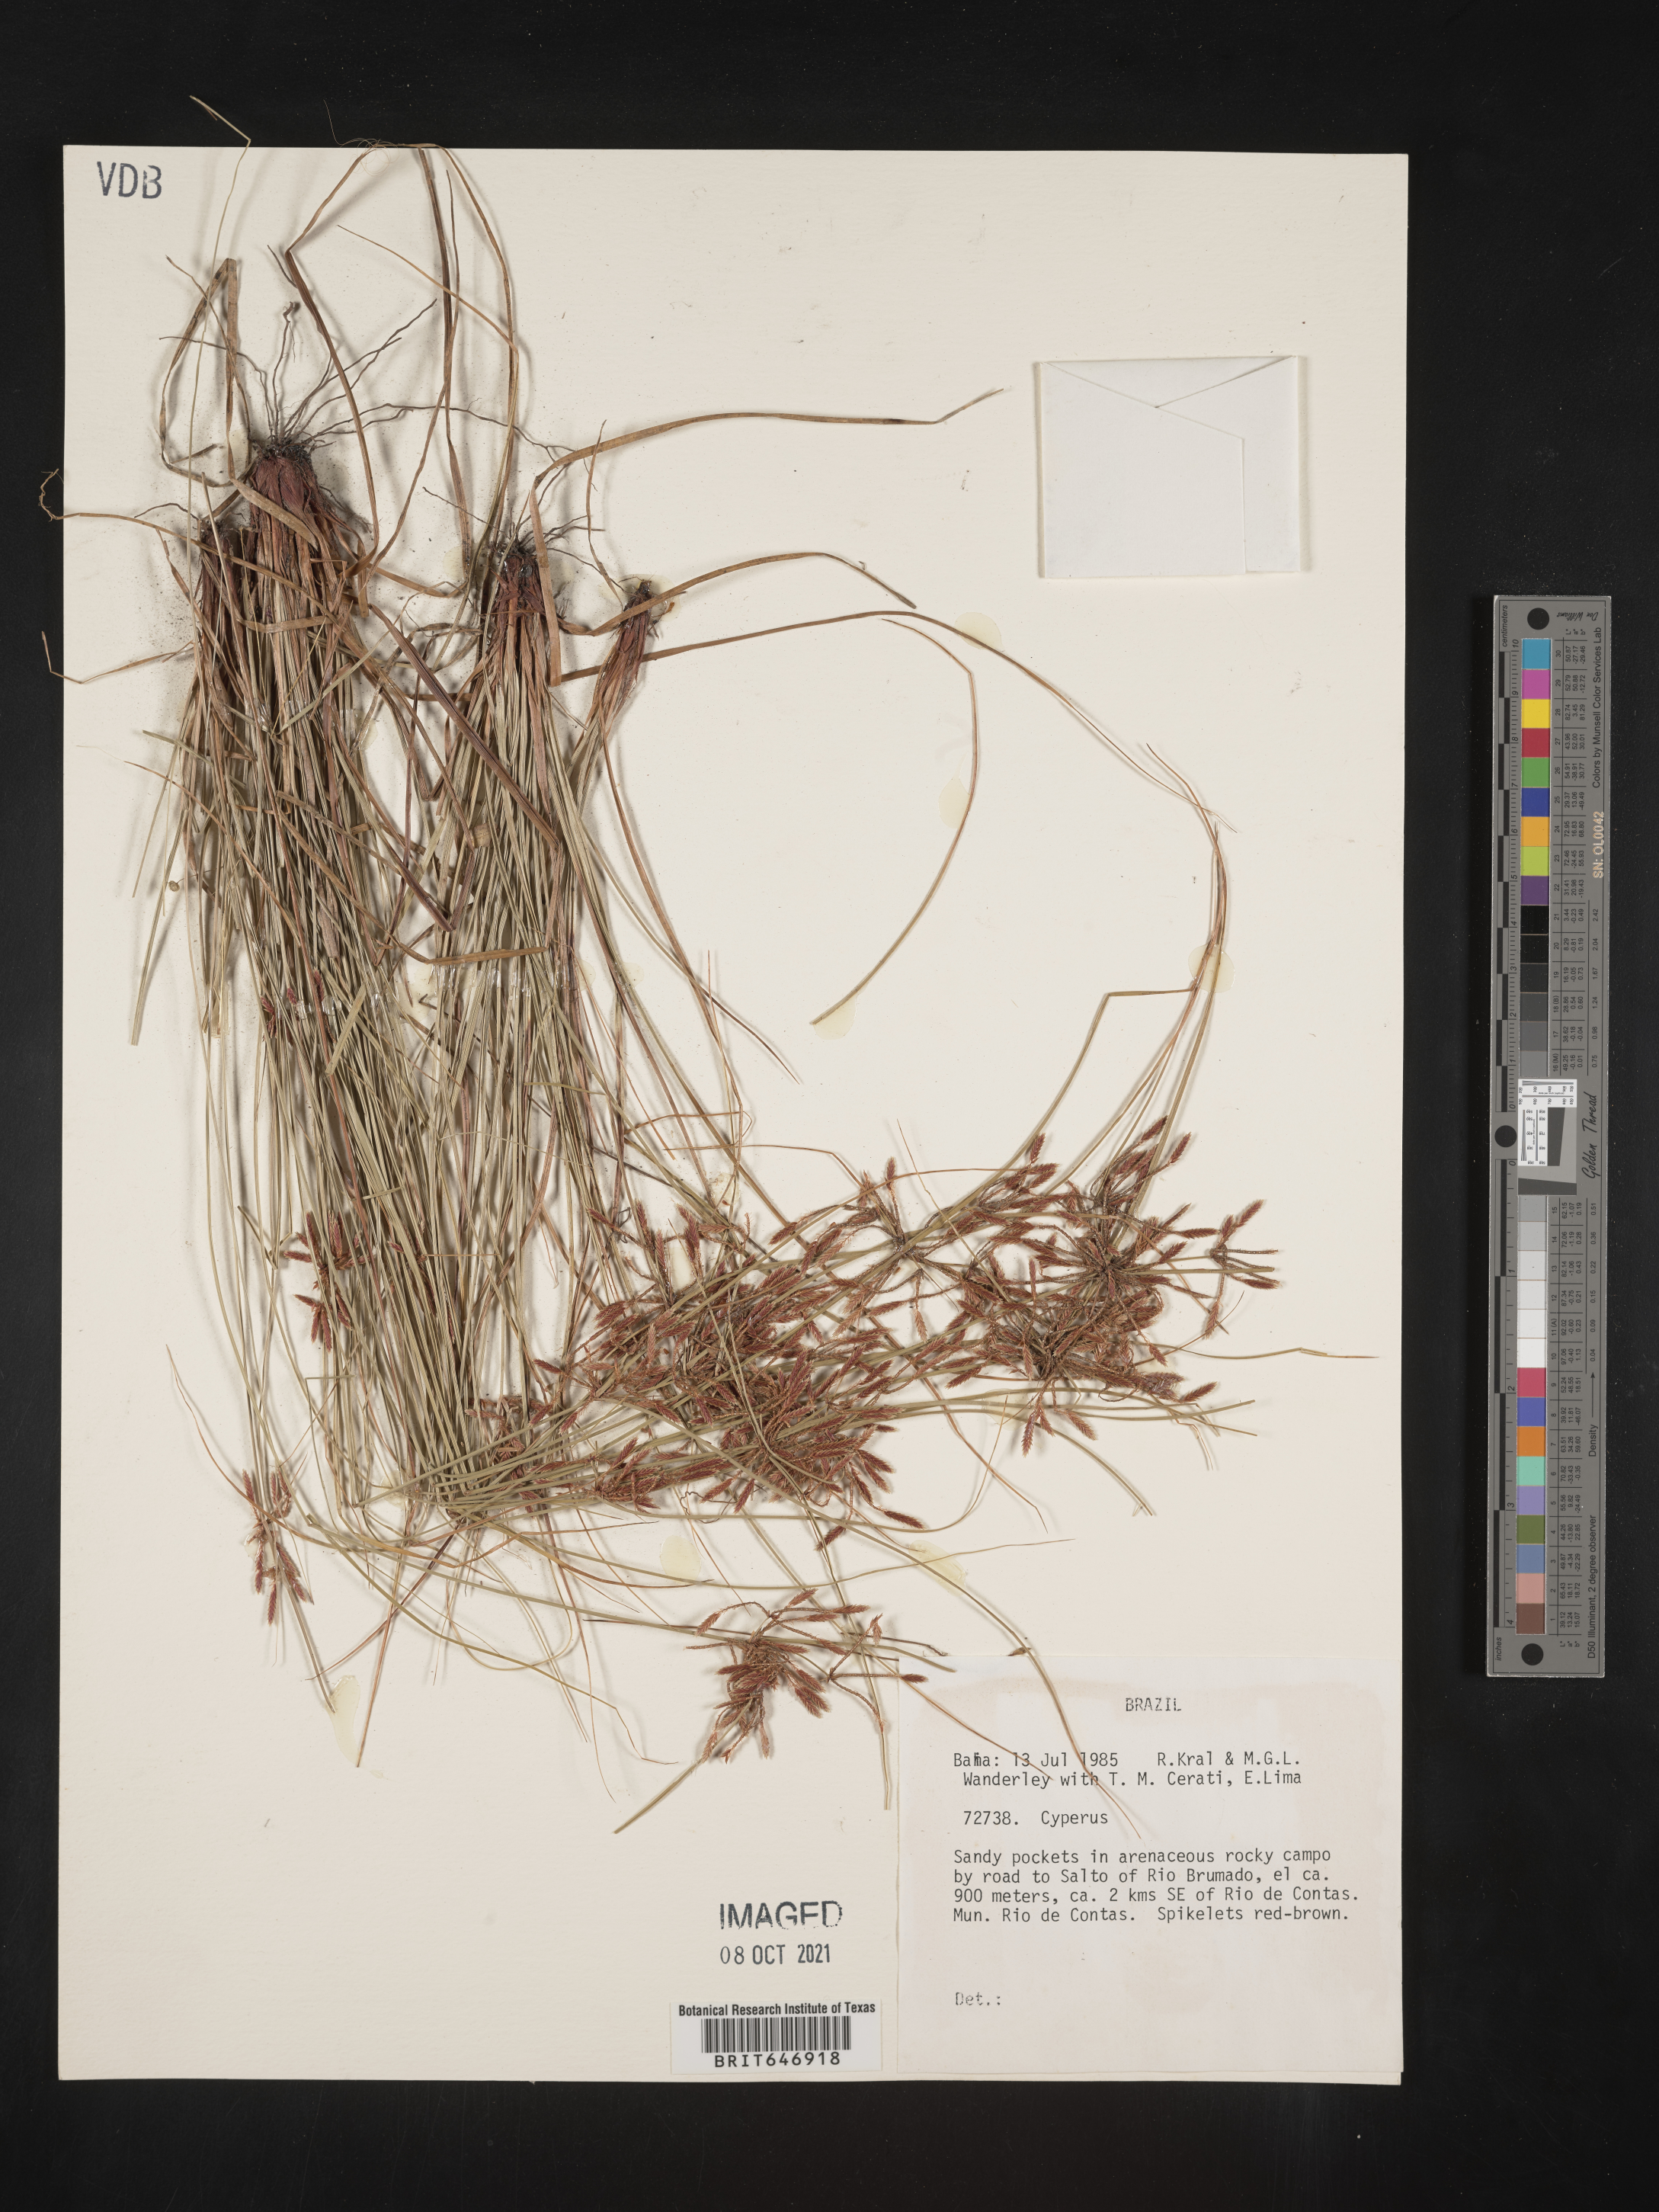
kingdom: Plantae
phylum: Tracheophyta
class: Liliopsida
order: Poales
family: Cyperaceae
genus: Cyperus
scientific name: Cyperus
